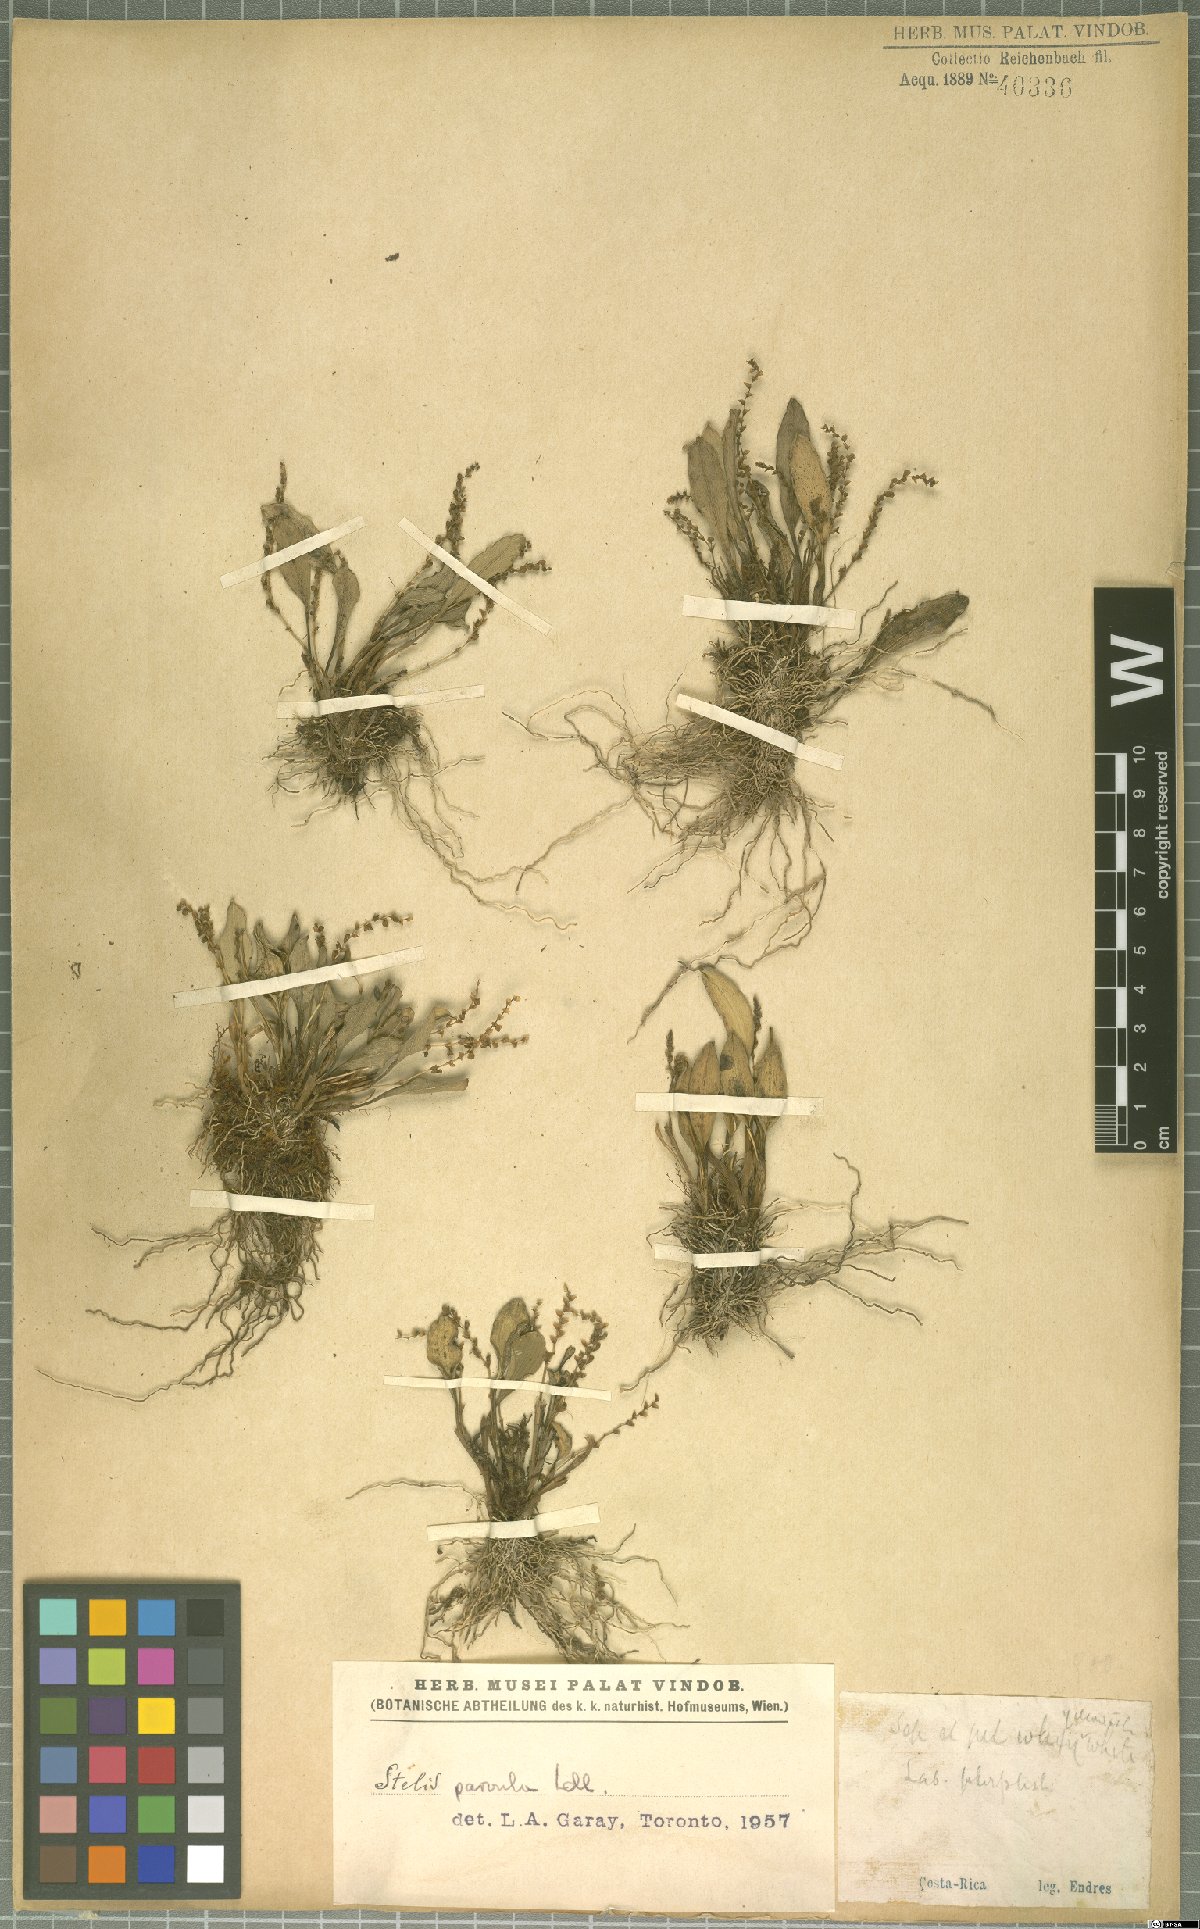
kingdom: Plantae
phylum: Tracheophyta
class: Liliopsida
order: Asparagales
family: Orchidaceae
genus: Stelis
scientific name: Stelis parvula
